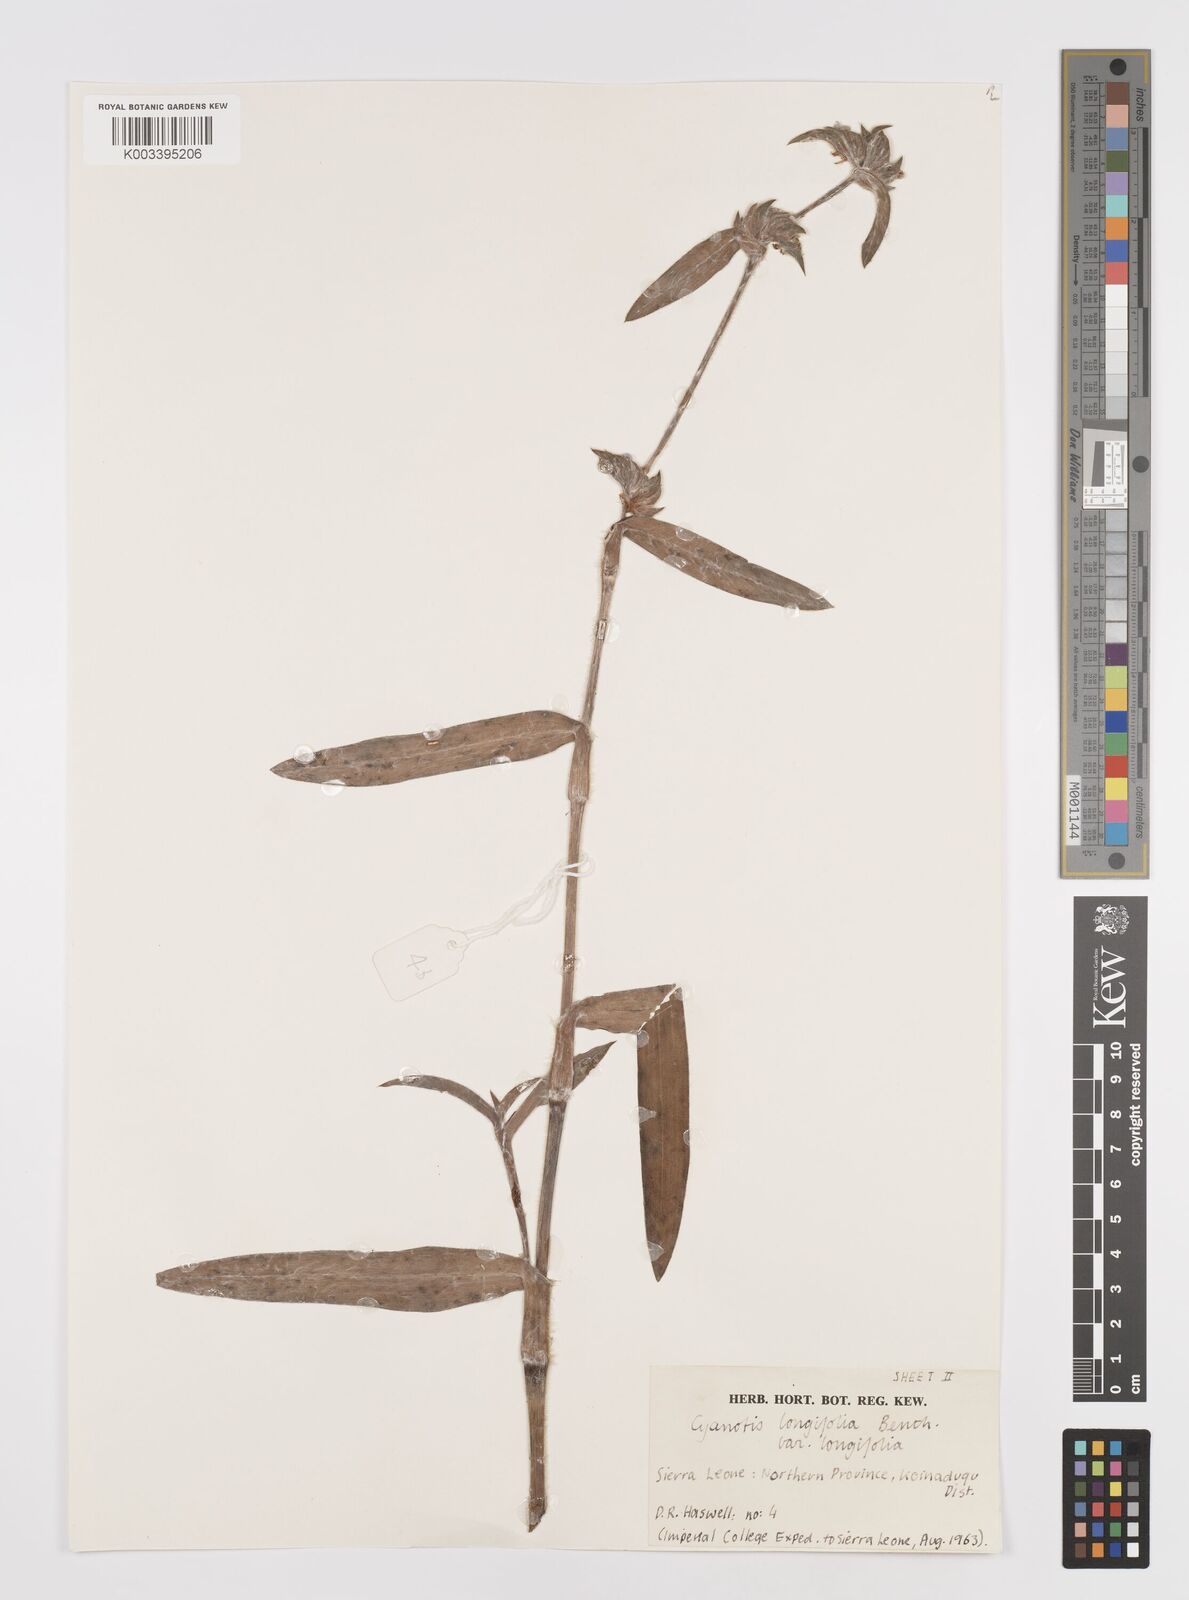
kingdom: Plantae
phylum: Tracheophyta
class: Liliopsida
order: Commelinales
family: Commelinaceae
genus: Cyanotis
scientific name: Cyanotis
